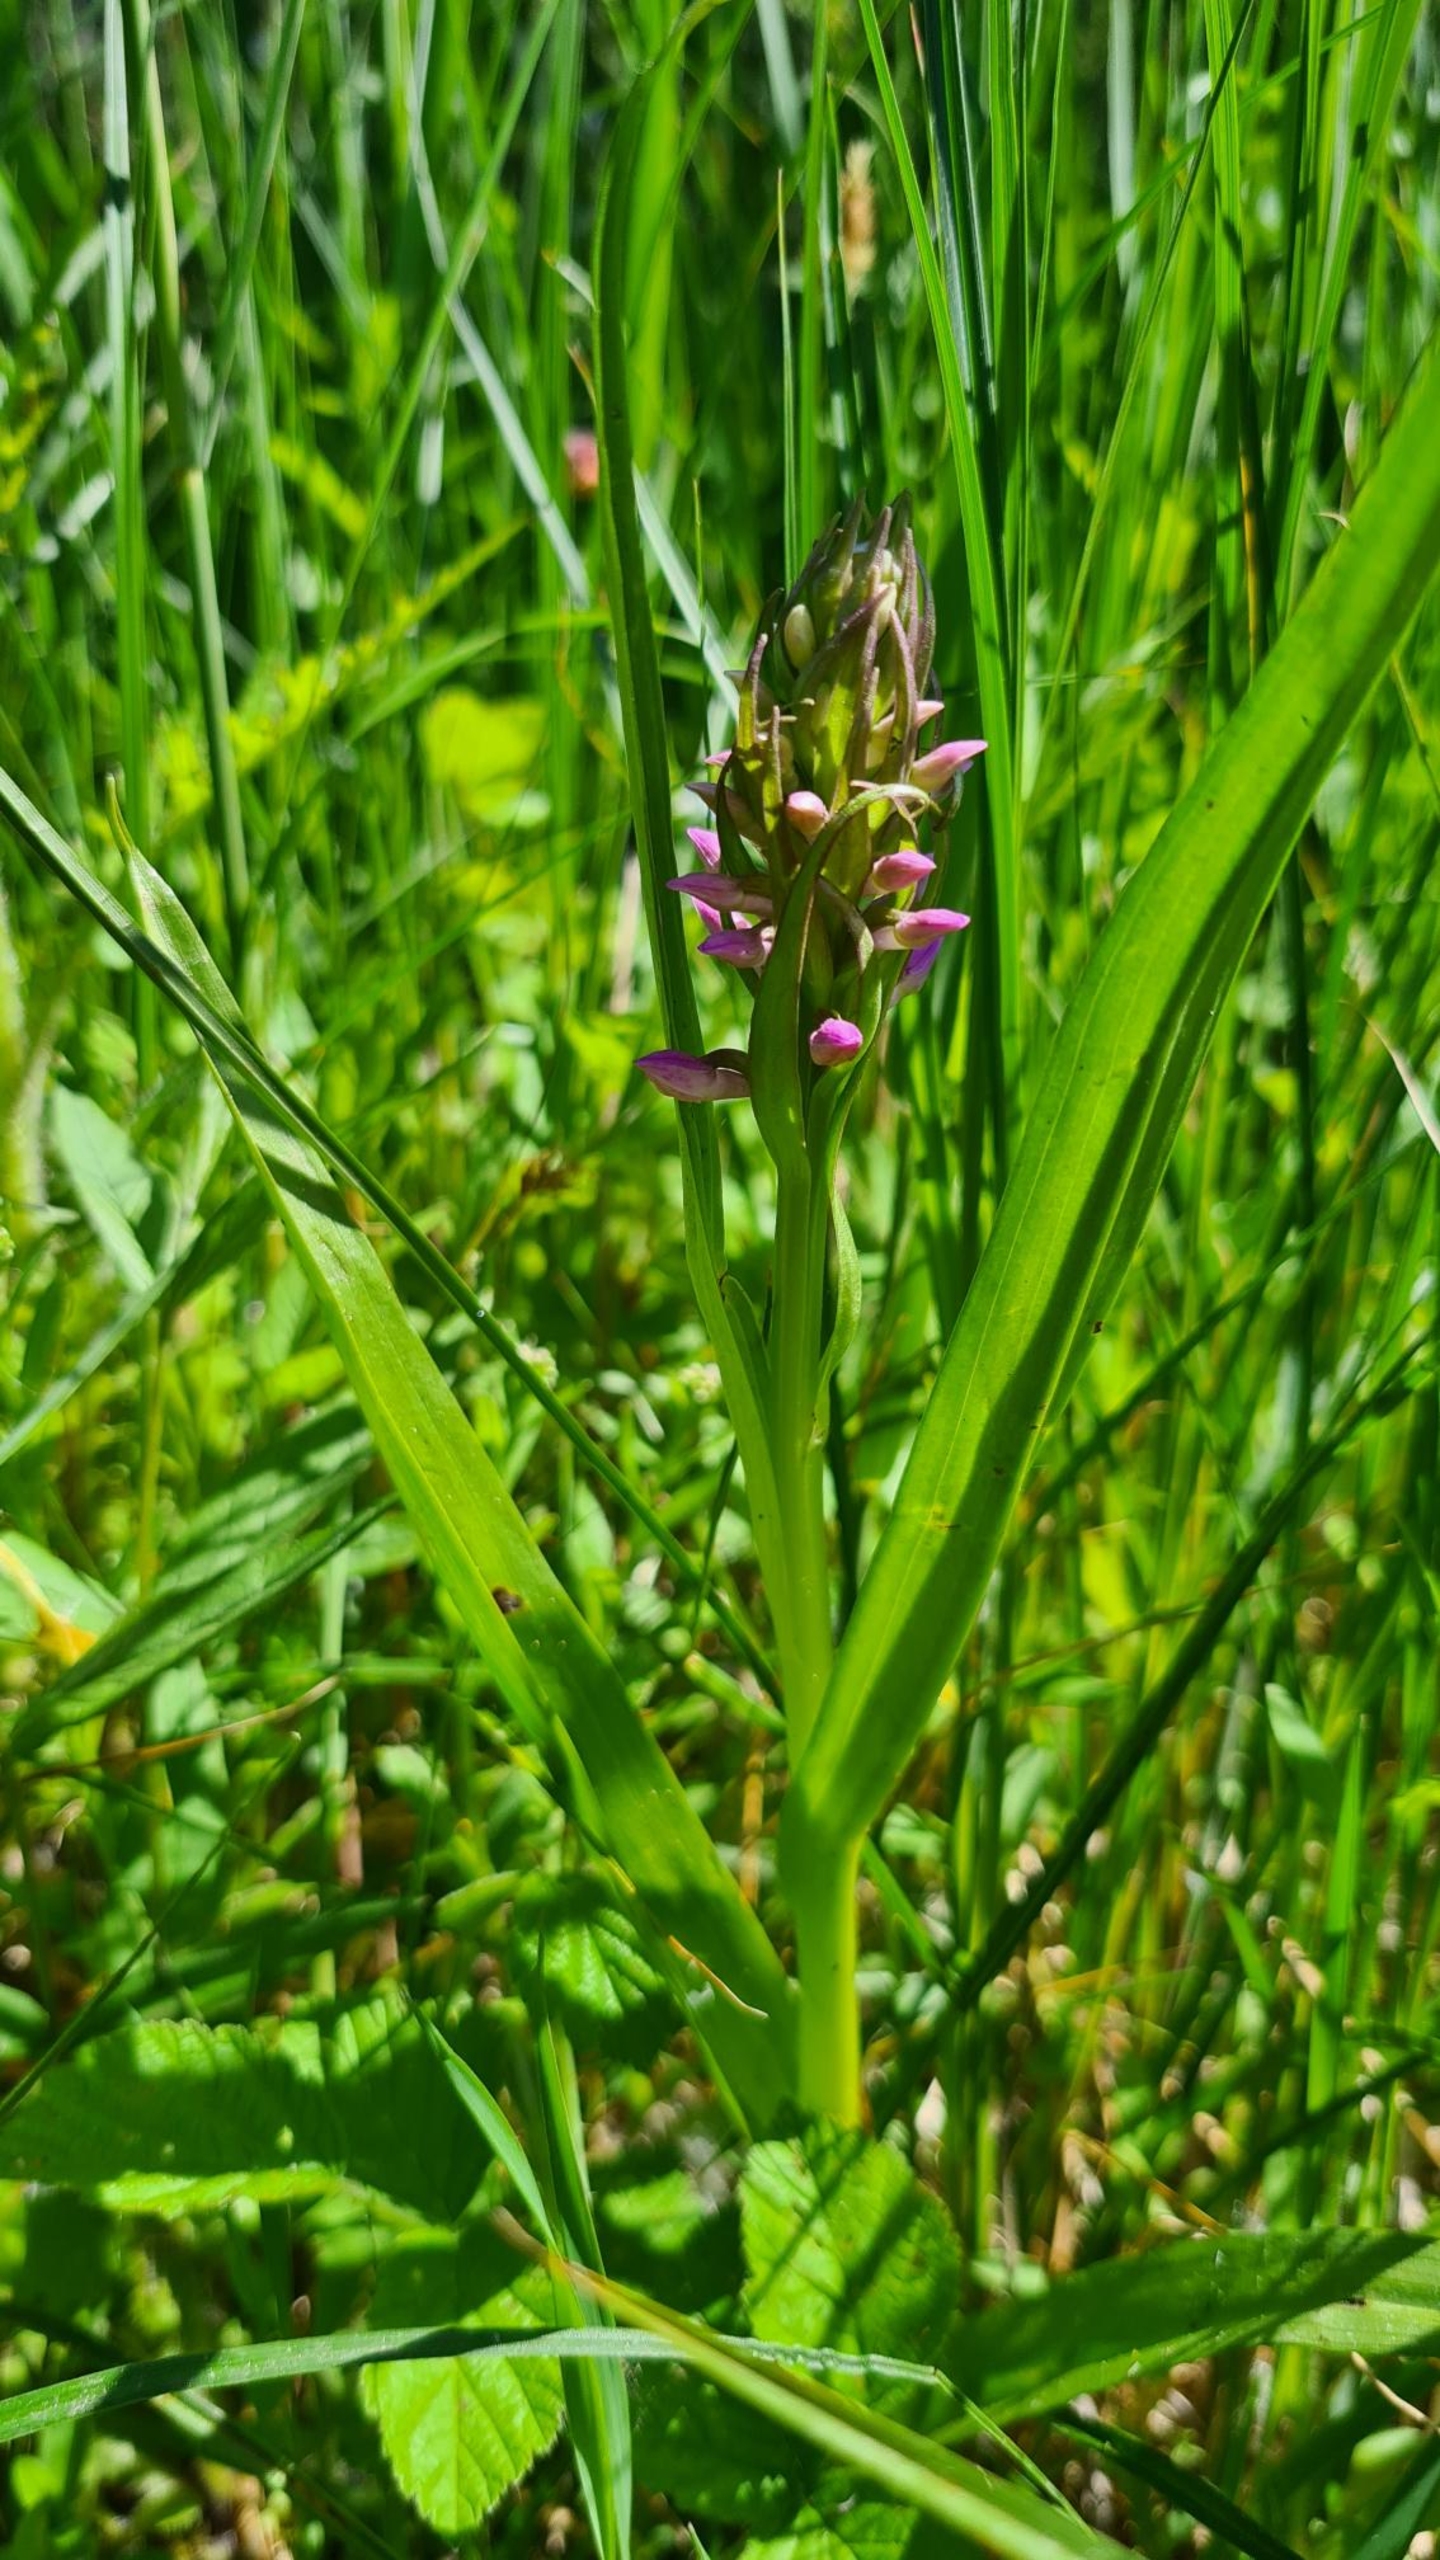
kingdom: Plantae
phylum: Tracheophyta
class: Liliopsida
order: Asparagales
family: Orchidaceae
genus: Dactylorhiza
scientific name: Dactylorhiza incarnata
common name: Kødfarvet gøgeurt
